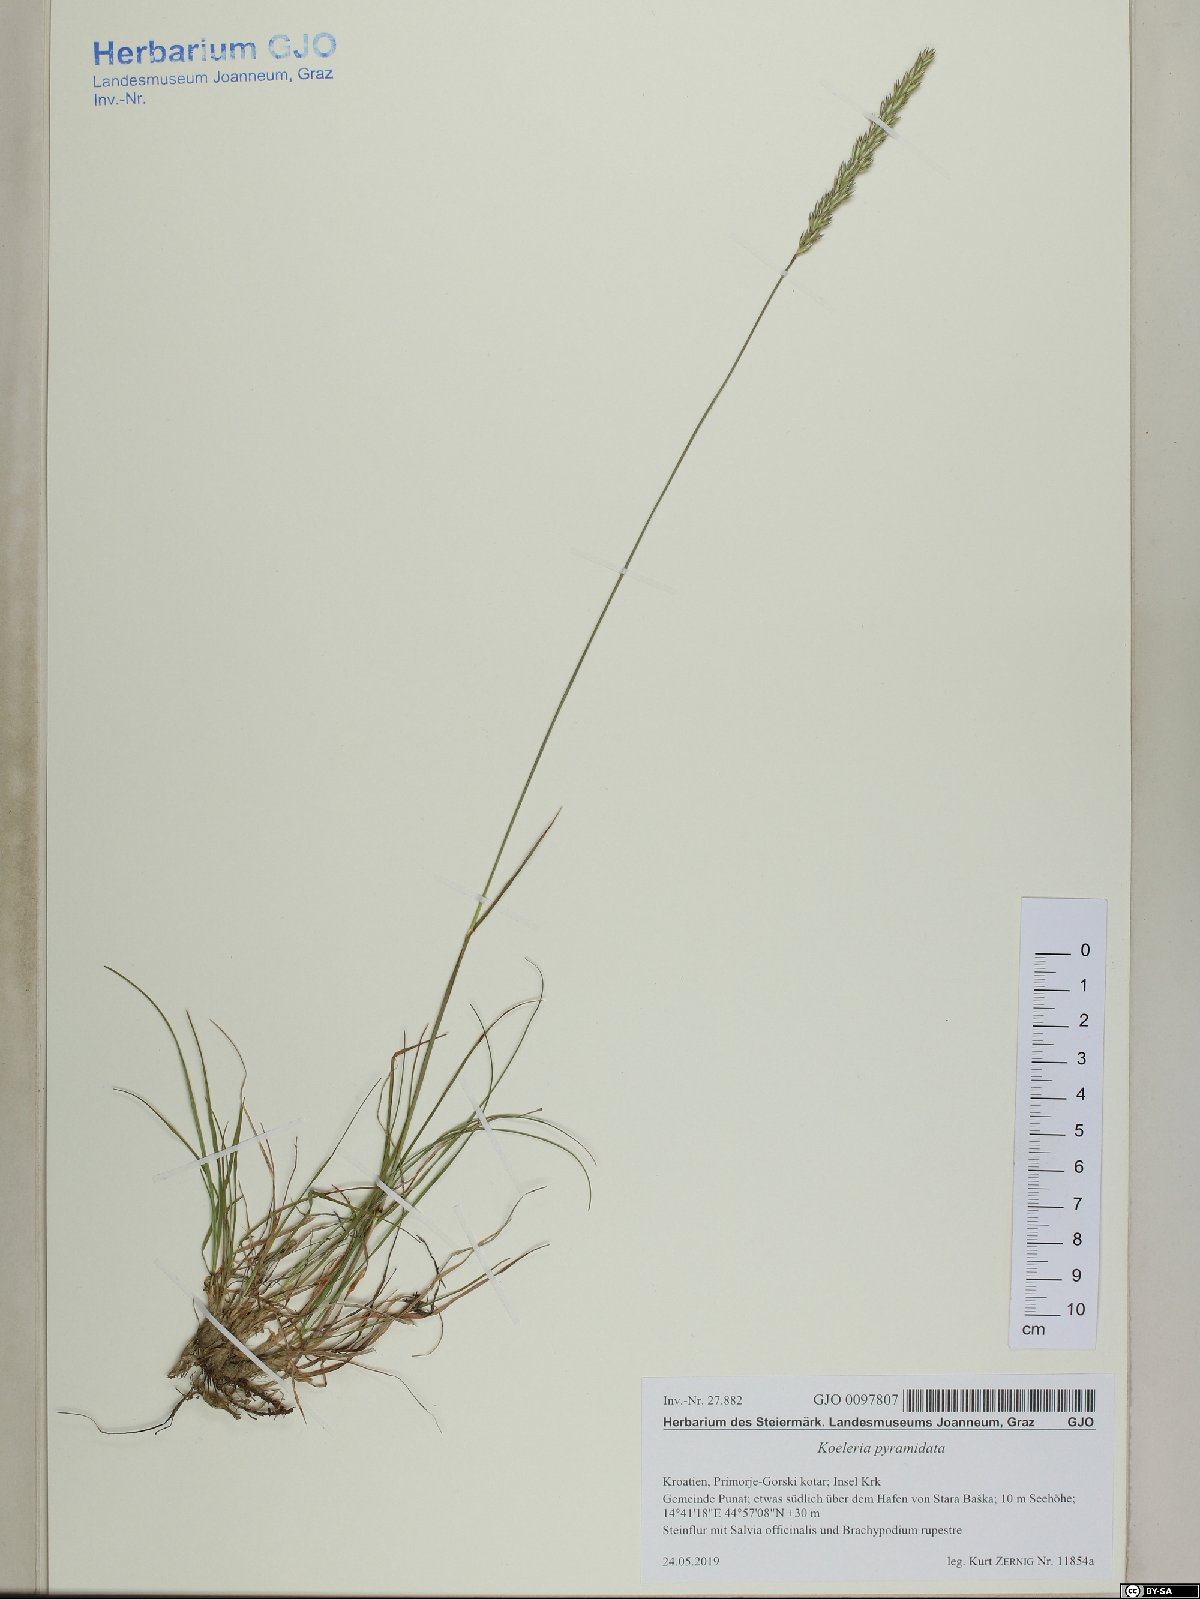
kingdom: Plantae
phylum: Tracheophyta
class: Liliopsida
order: Poales
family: Poaceae
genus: Koeleria
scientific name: Koeleria pyramidata
